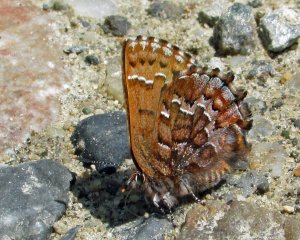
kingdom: Animalia
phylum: Arthropoda
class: Insecta
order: Lepidoptera
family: Lycaenidae
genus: Incisalia
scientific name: Incisalia niphon
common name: Eastern Pine Elfin
